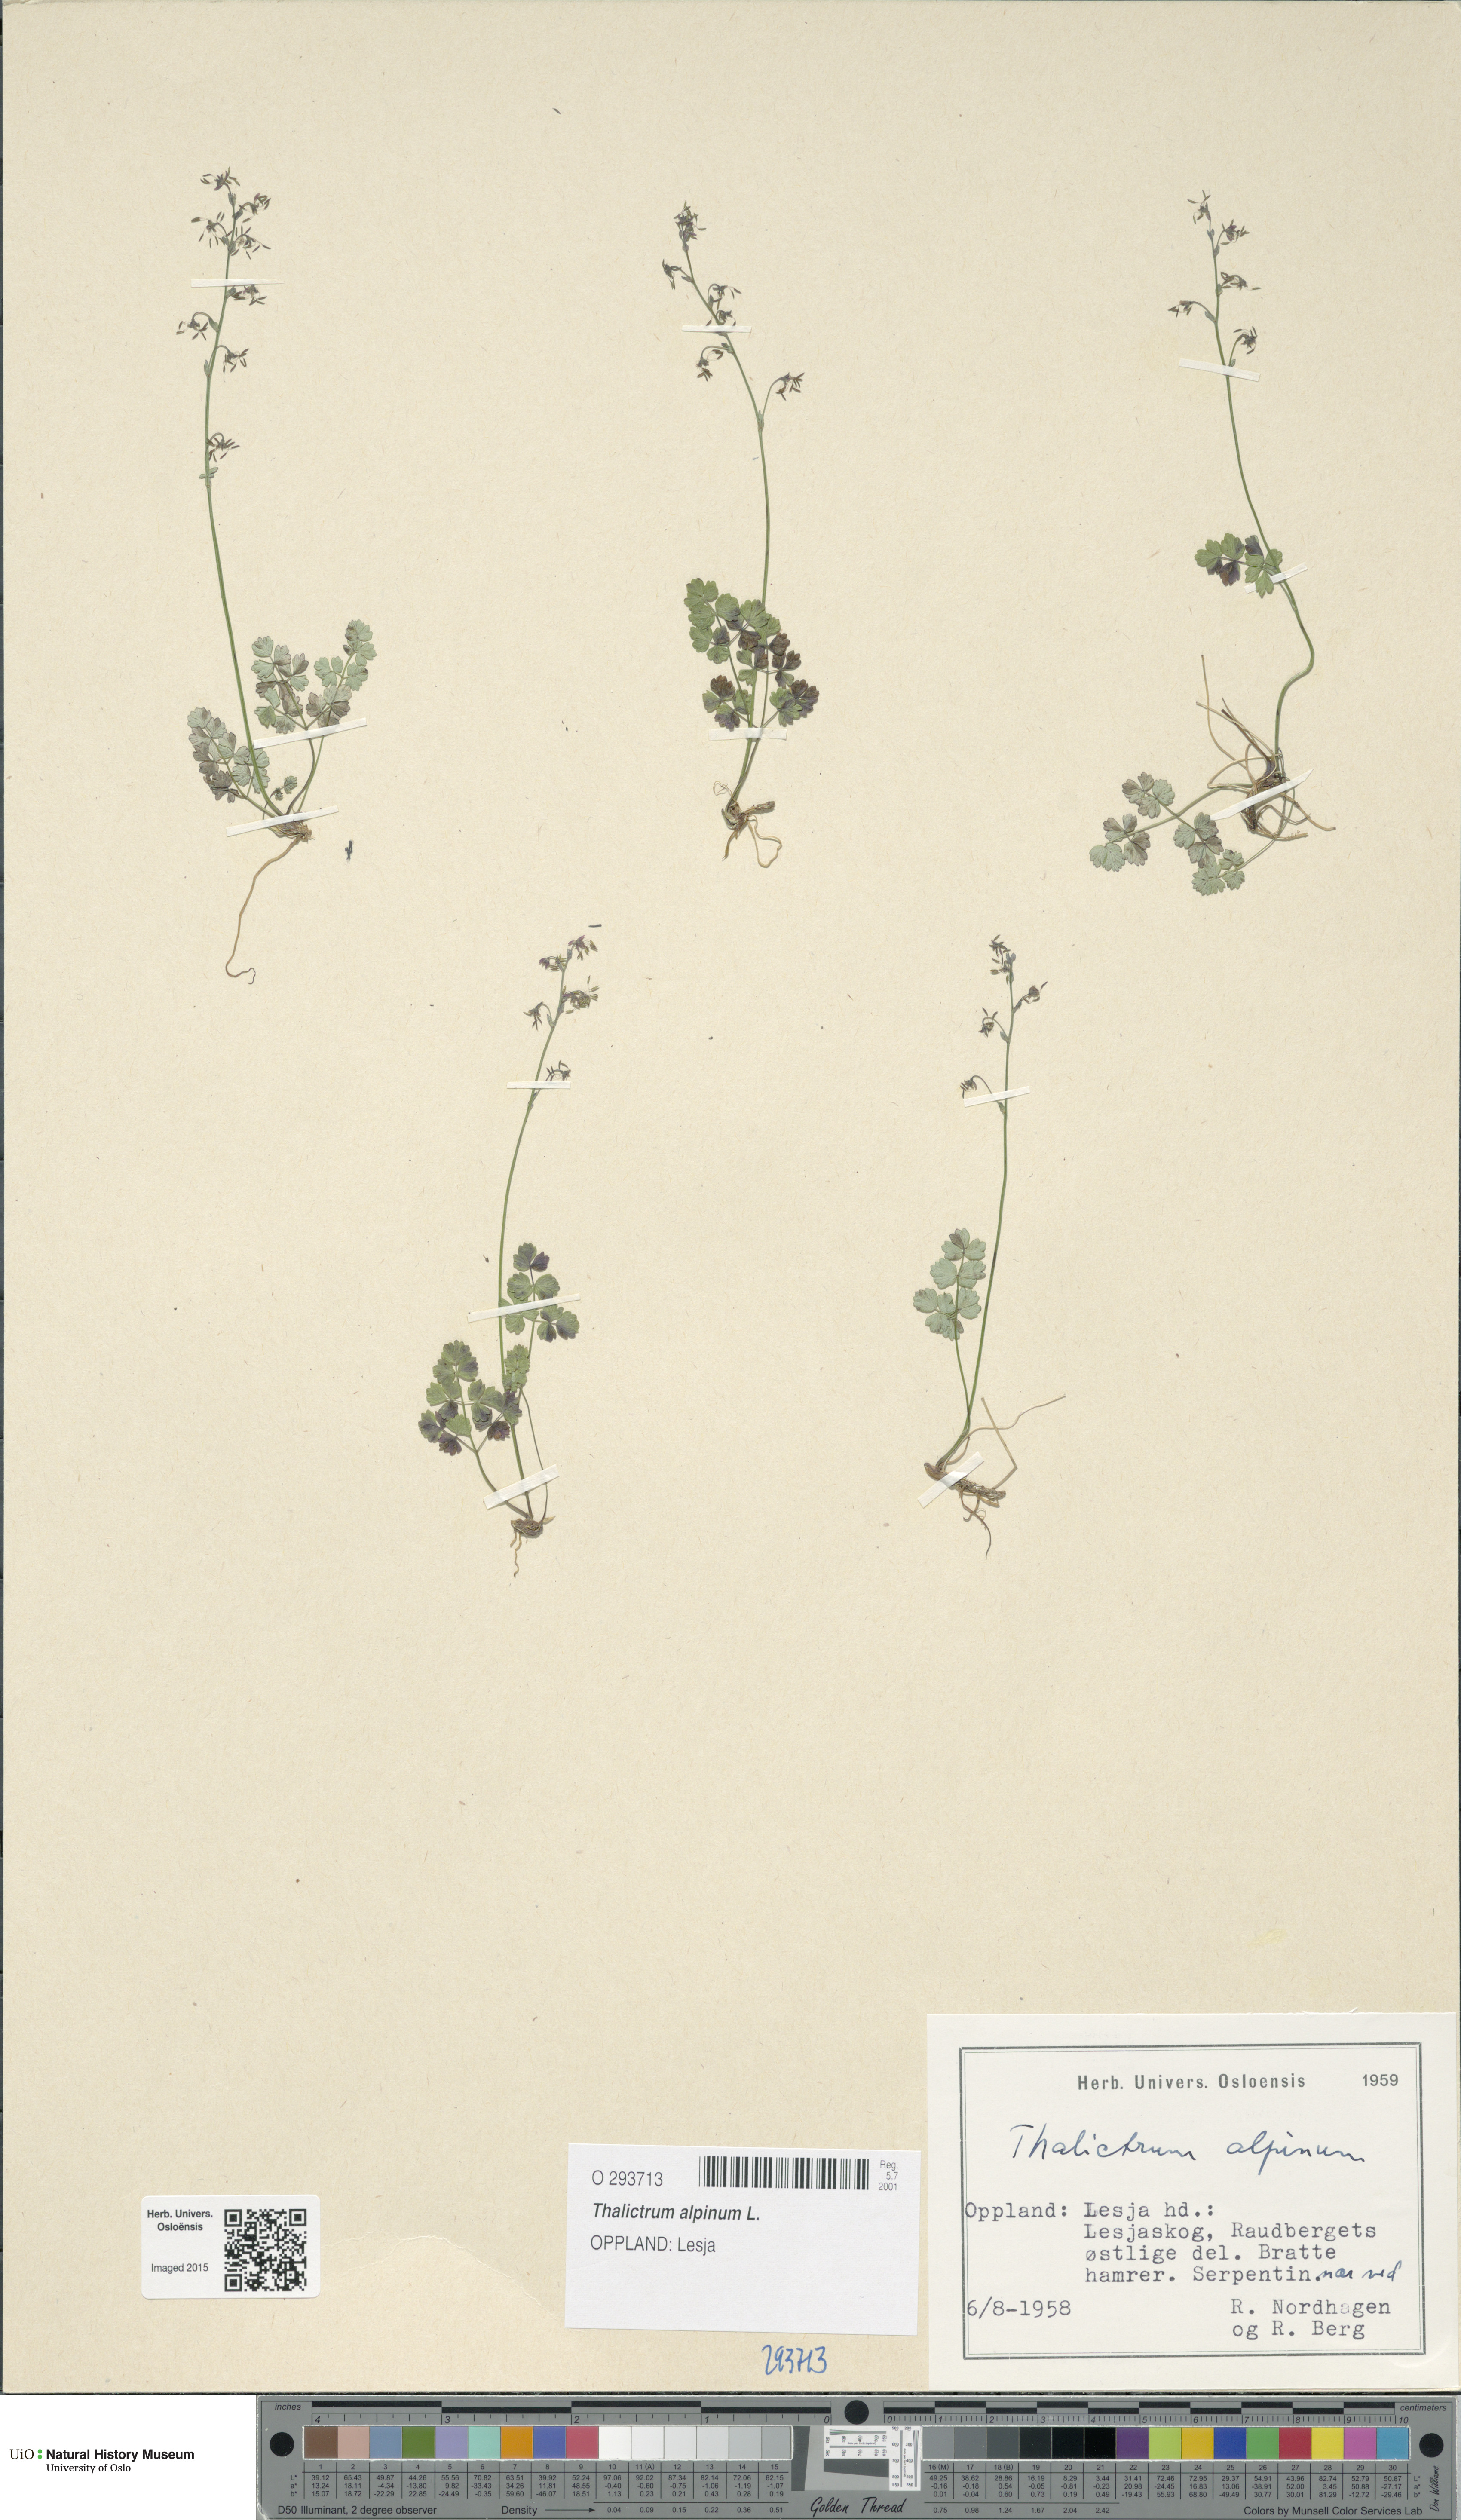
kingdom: Plantae
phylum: Tracheophyta
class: Magnoliopsida
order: Ranunculales
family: Ranunculaceae
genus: Thalictrum
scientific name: Thalictrum alpinum
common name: Alpine meadow-rue
